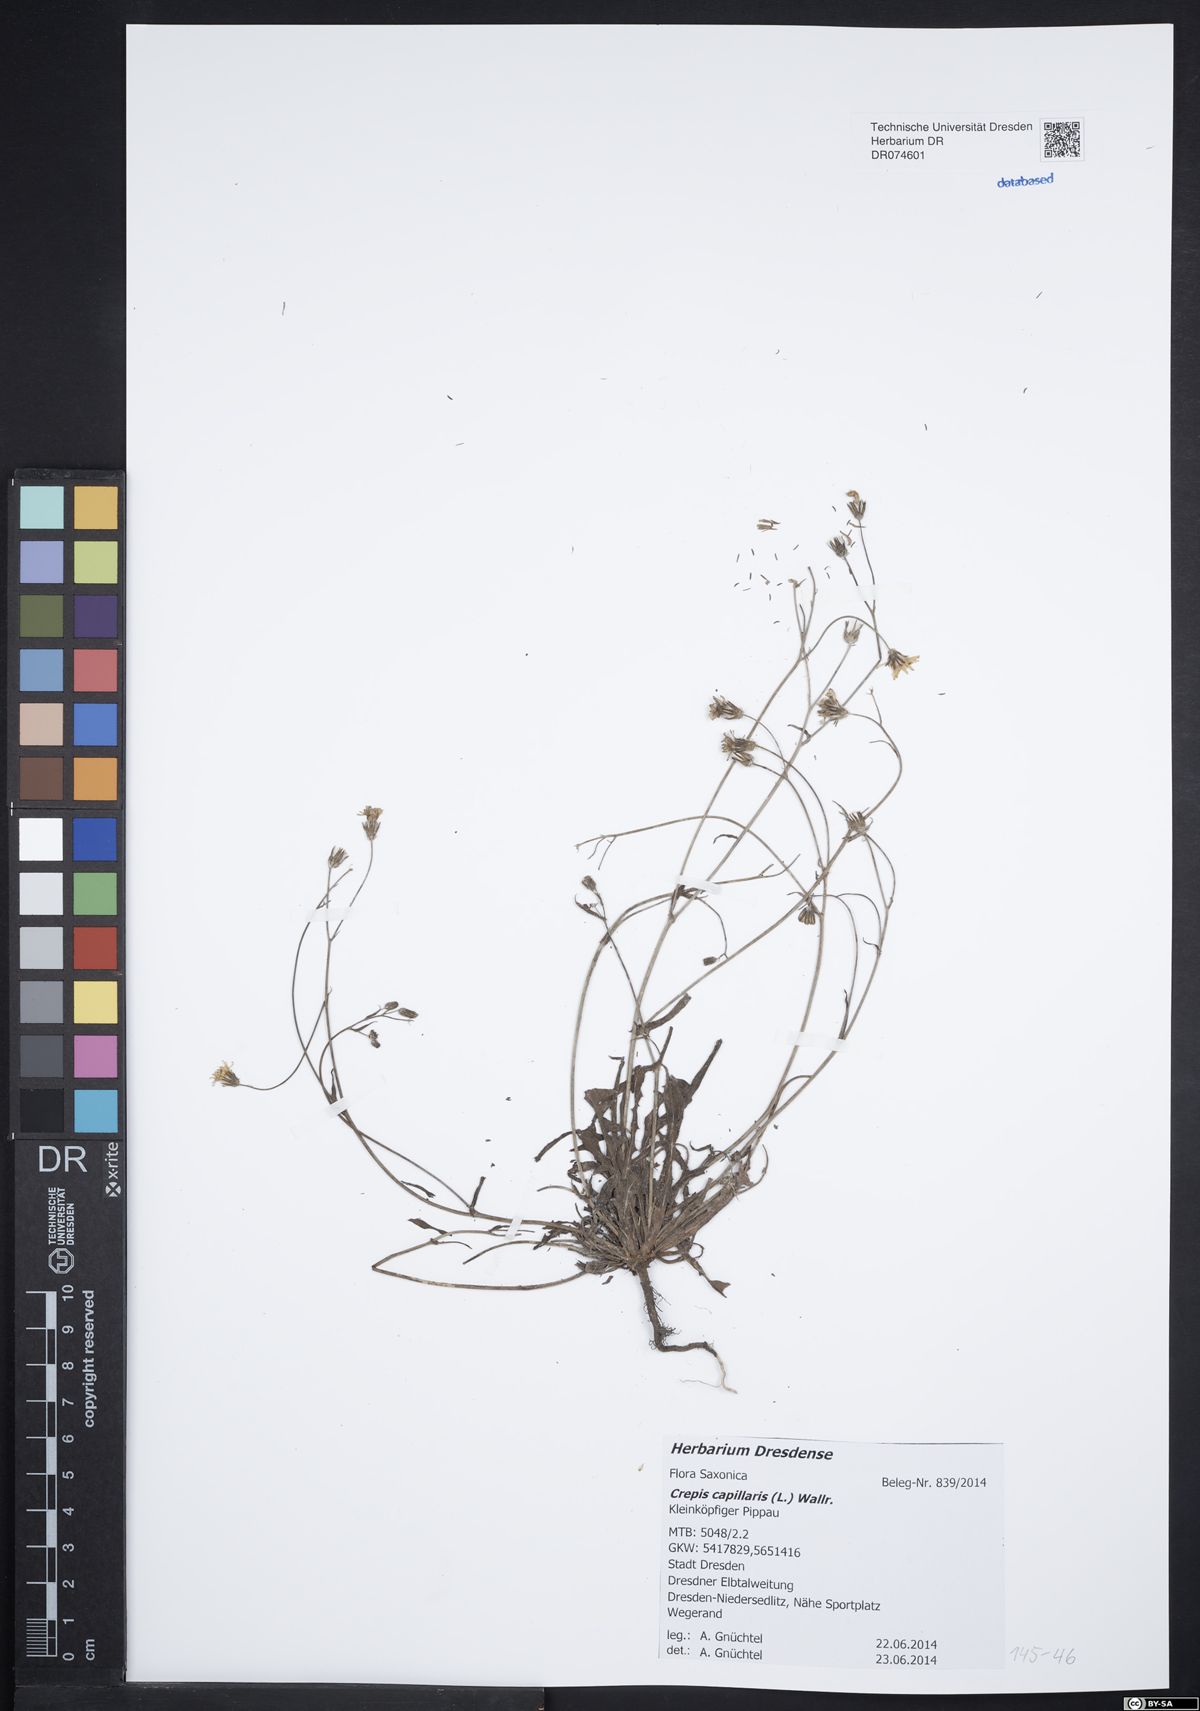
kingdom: Plantae
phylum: Tracheophyta
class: Magnoliopsida
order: Asterales
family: Asteraceae
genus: Crepis
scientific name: Crepis capillaris
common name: Smooth hawksbeard
